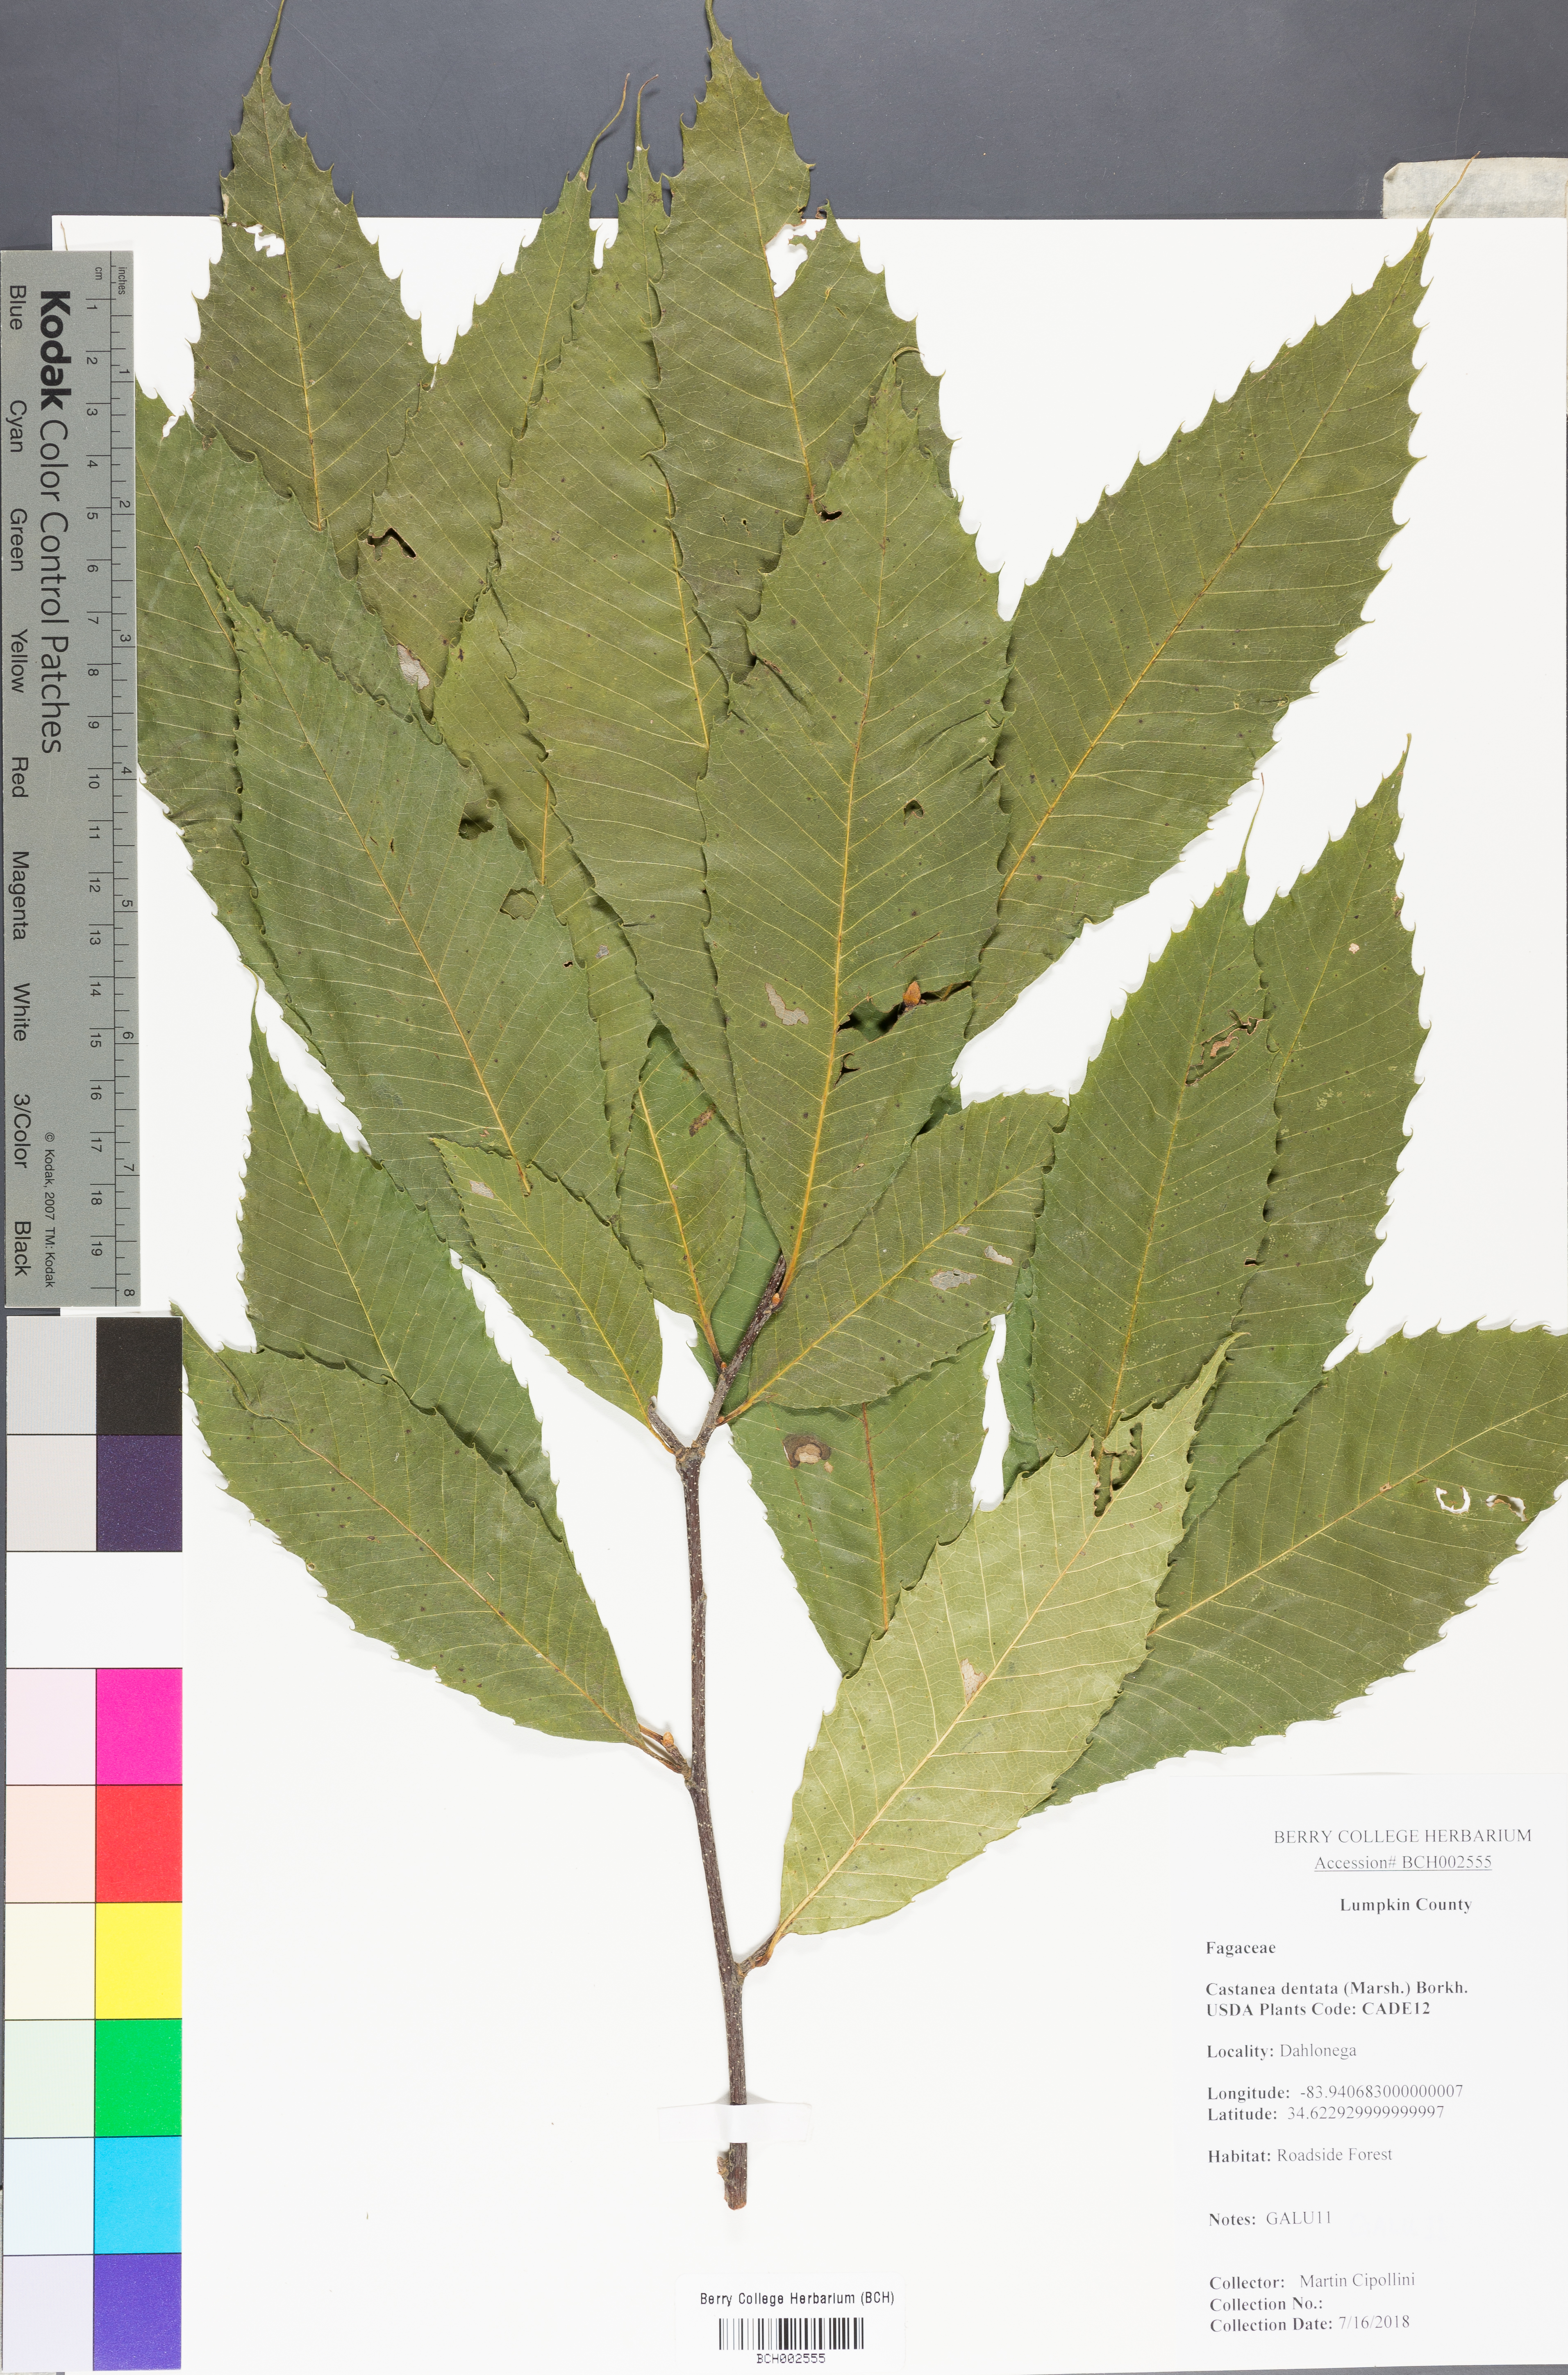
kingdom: Plantae
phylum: Tracheophyta
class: Magnoliopsida
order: Fagales
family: Fagaceae
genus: Castanea
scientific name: Castanea dentata
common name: American chestnut
